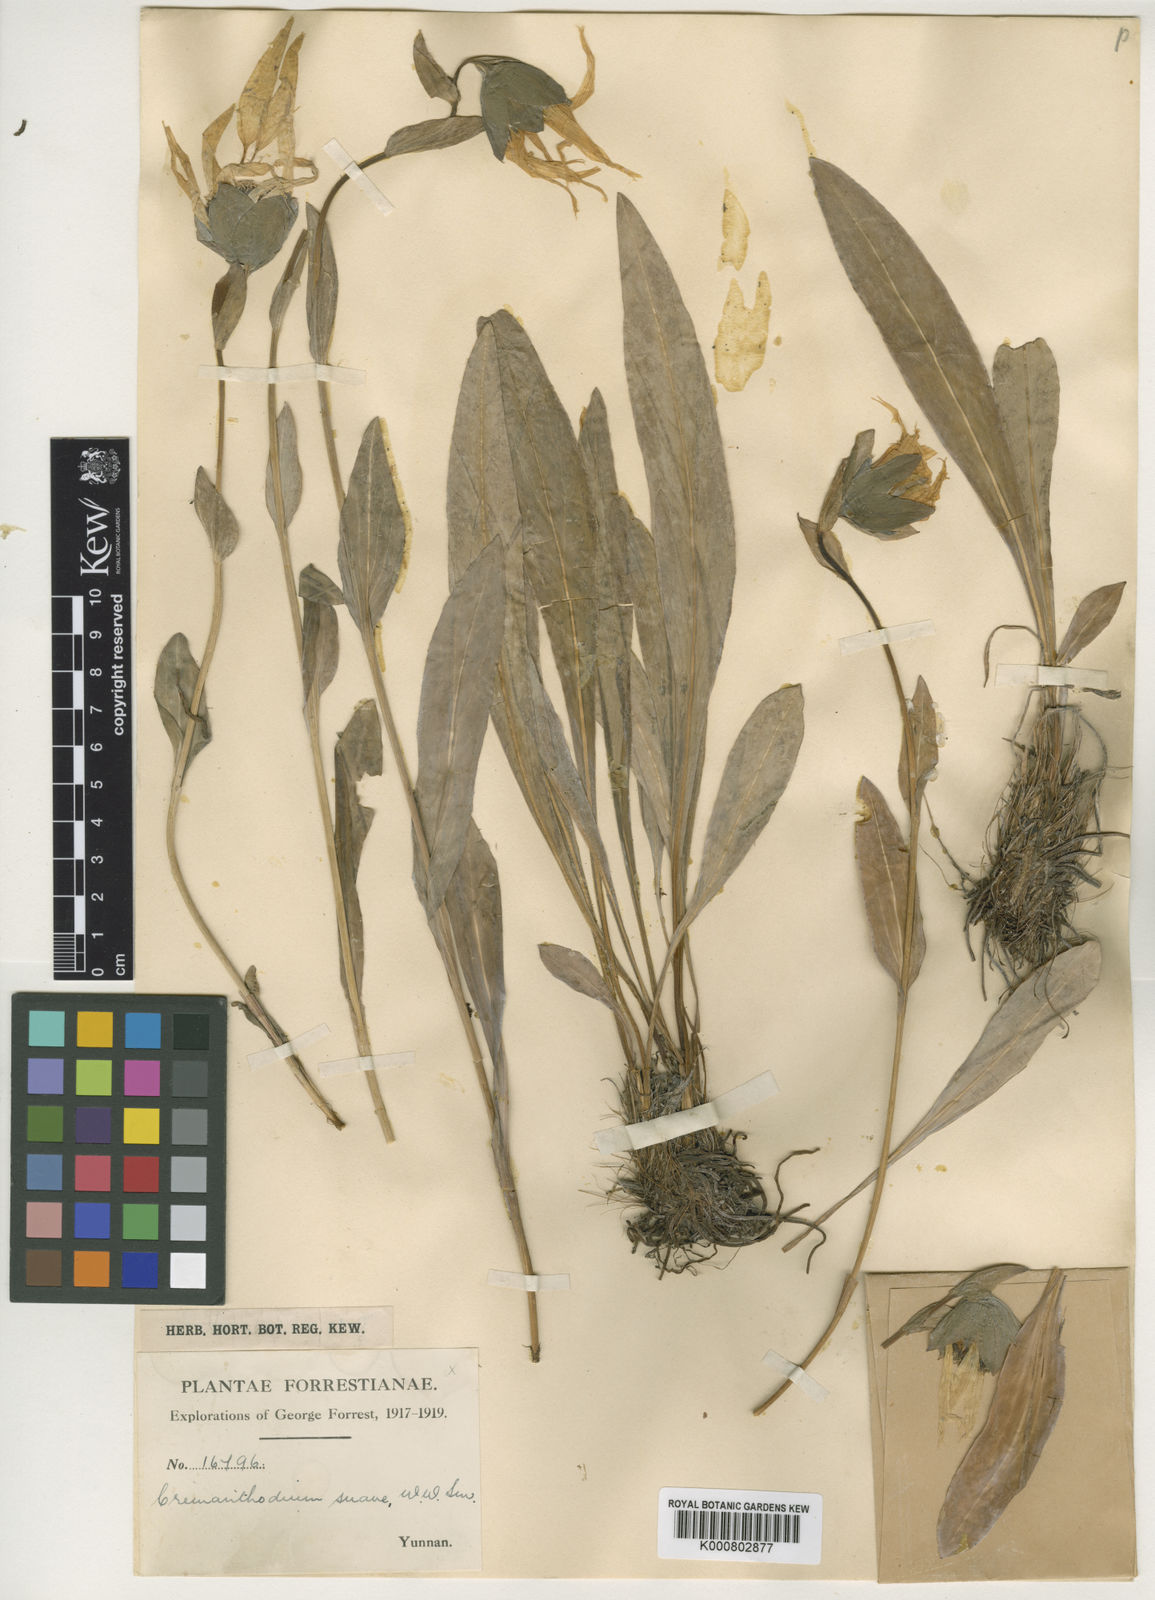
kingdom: Plantae
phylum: Tracheophyta
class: Magnoliopsida
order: Asterales
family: Asteraceae
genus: Cremanthodium
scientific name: Cremanthodium suave
